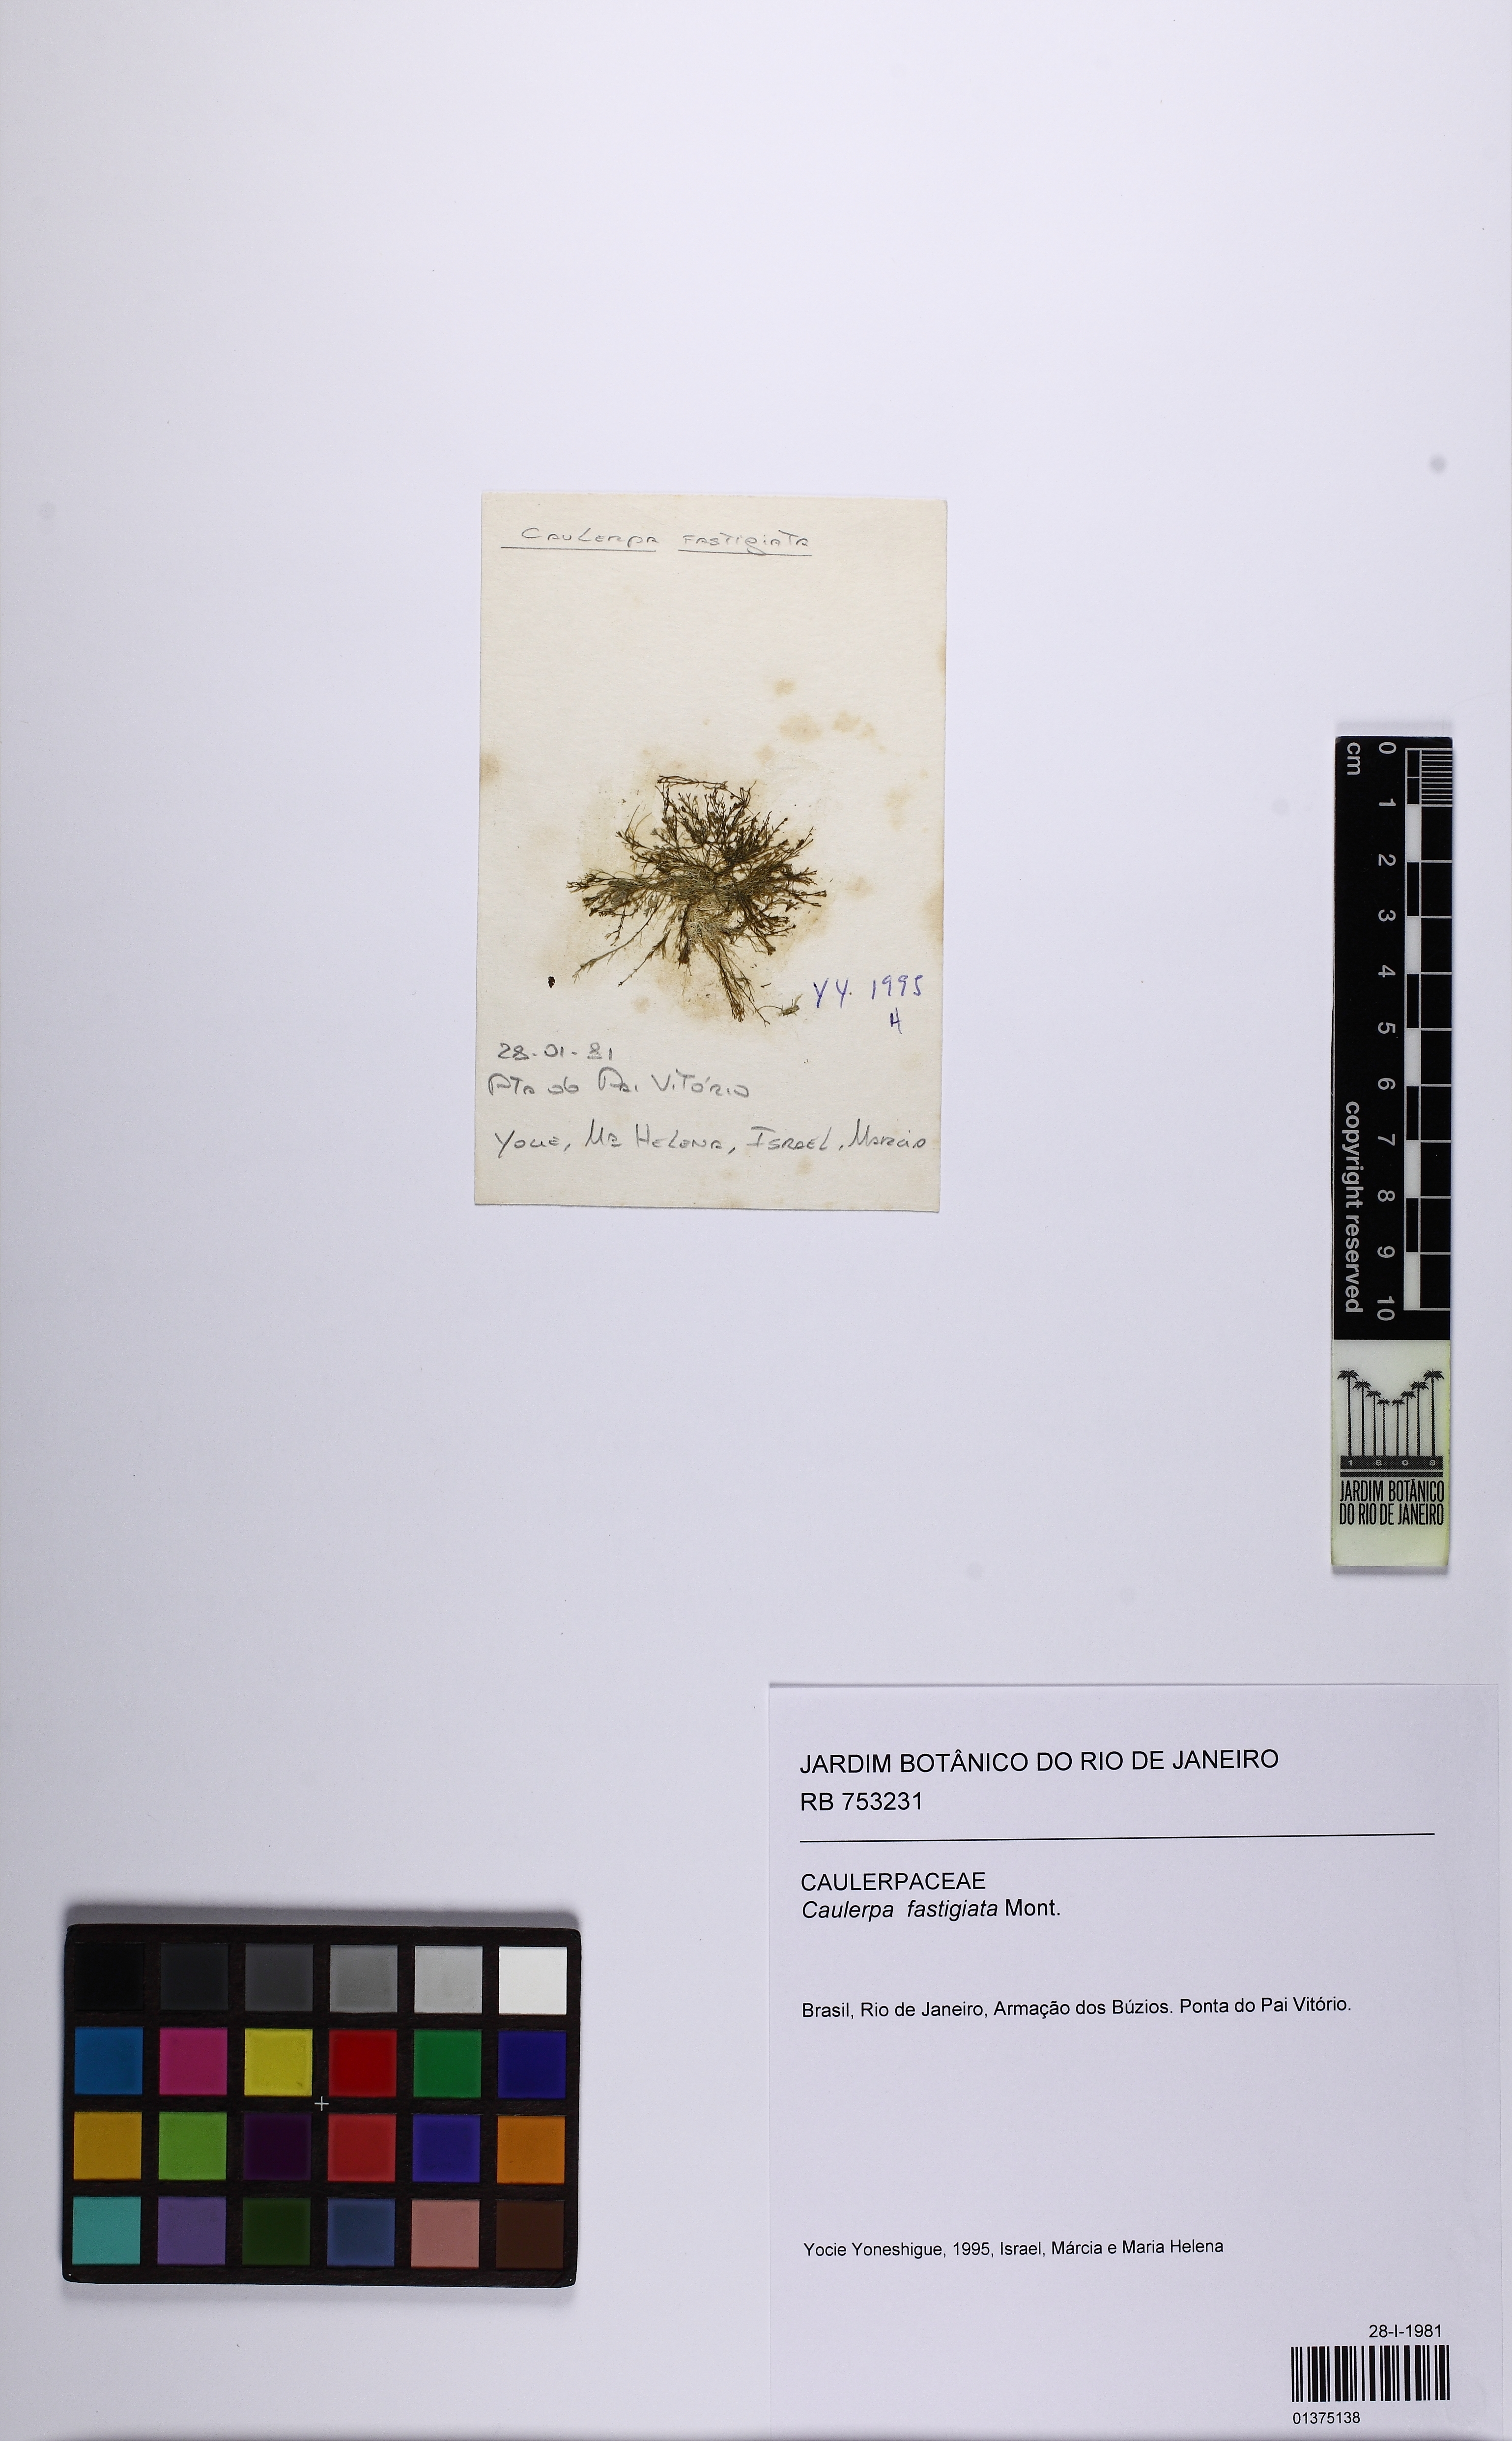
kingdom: Plantae
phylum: Chlorophyta
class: Ulvophyceae
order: Bryopsidales
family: Caulerpaceae
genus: Caulerpa
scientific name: Caulerpa fastigiata
